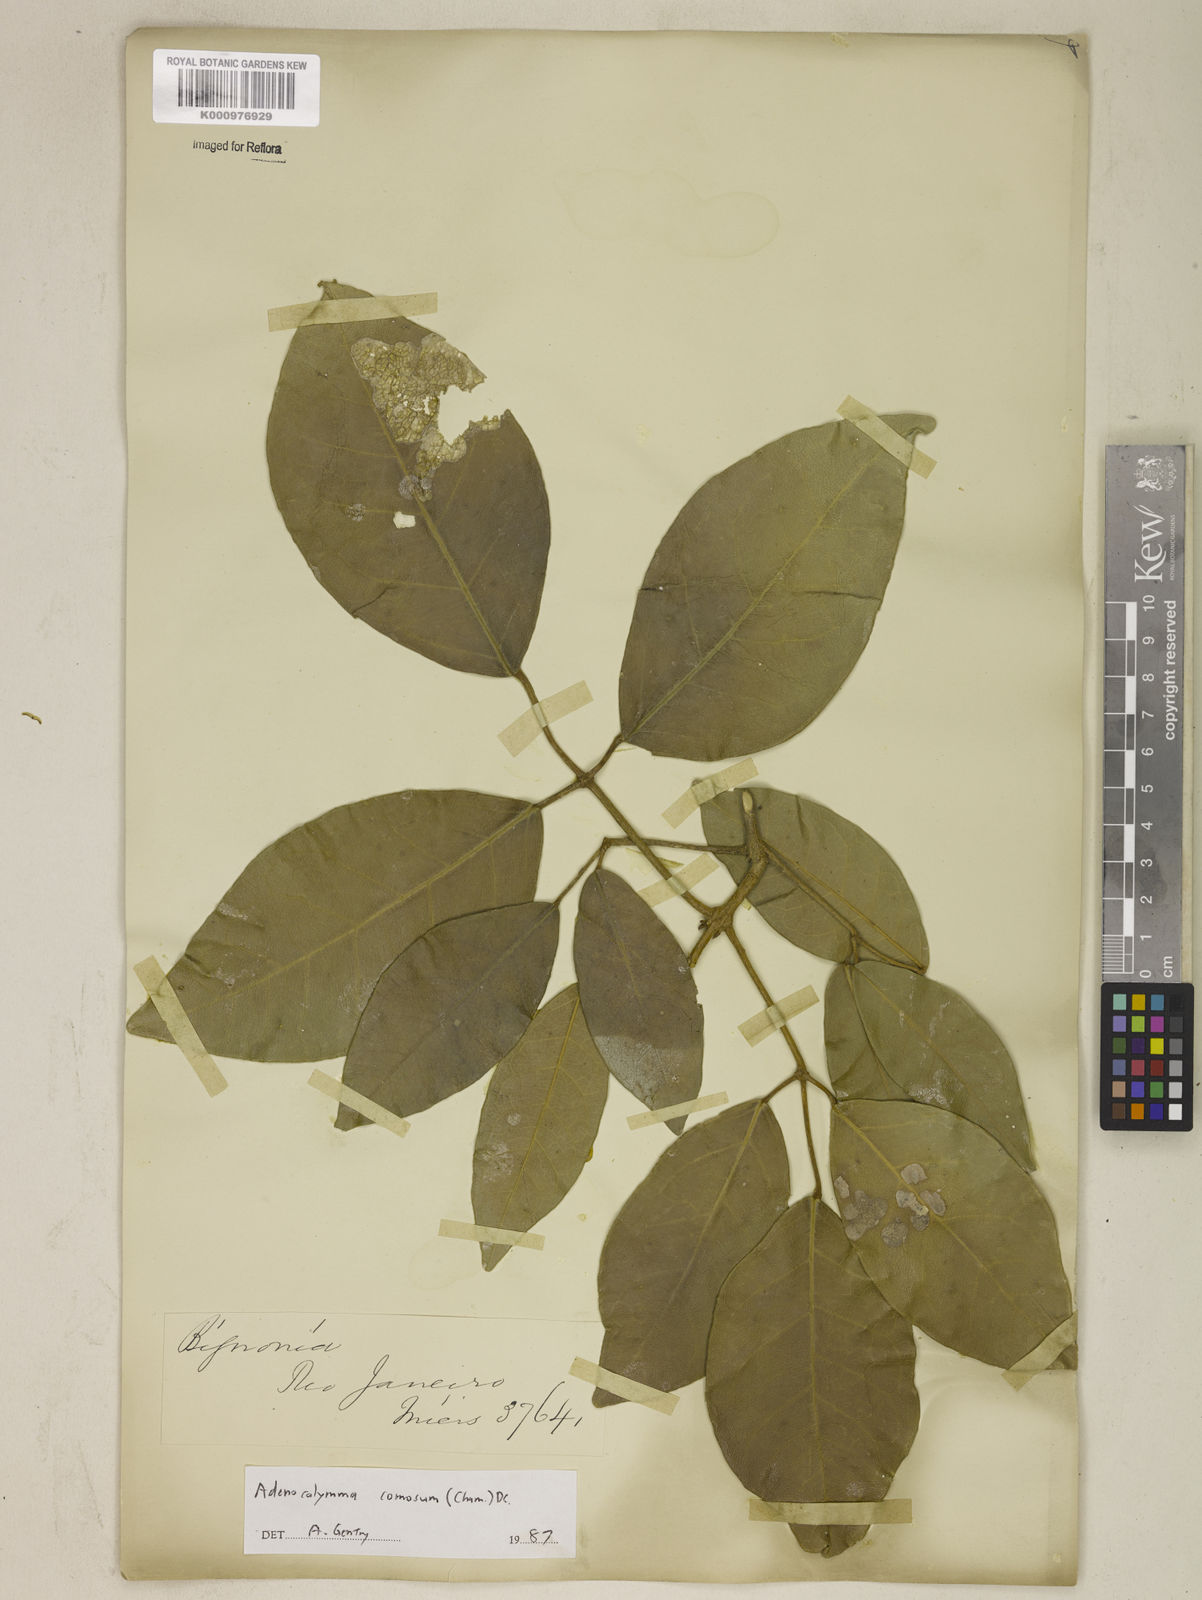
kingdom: Plantae
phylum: Tracheophyta
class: Magnoliopsida
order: Lamiales
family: Bignoniaceae
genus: Adenocalymma
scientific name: Adenocalymma acutissimum
